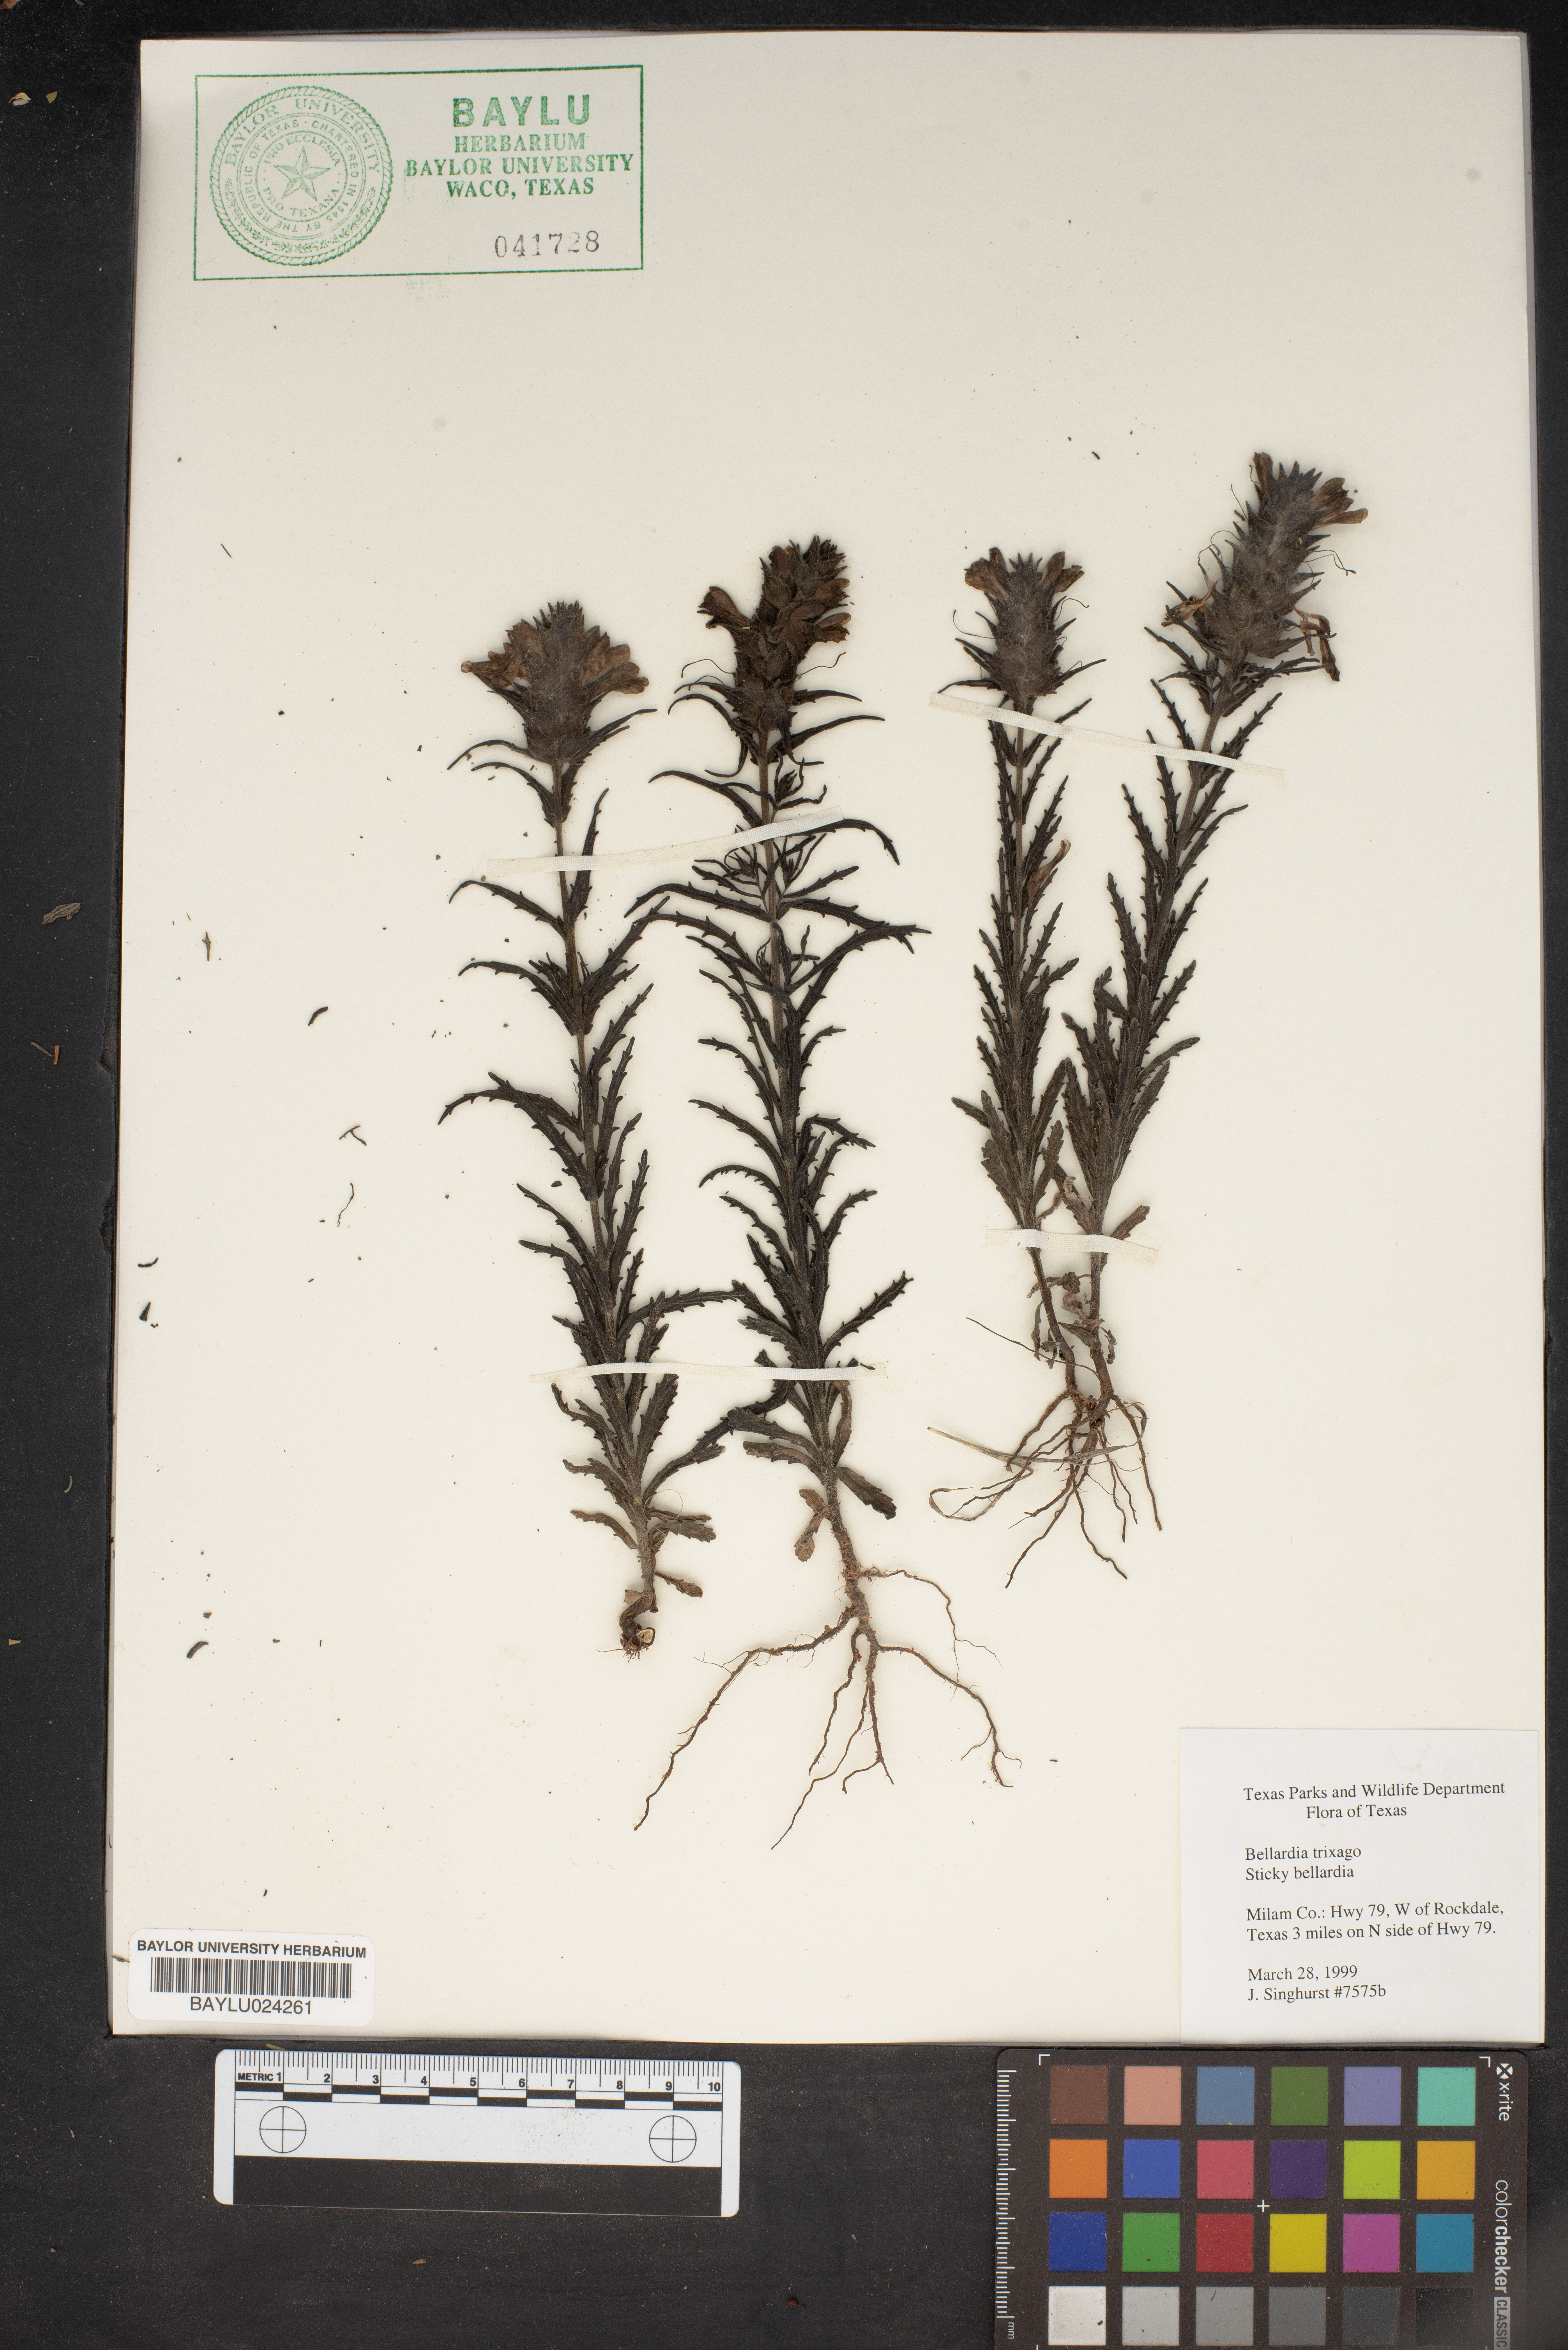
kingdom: Plantae
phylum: Tracheophyta
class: Magnoliopsida
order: Lamiales
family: Orobanchaceae
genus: Bellardia
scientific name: Bellardia trixago
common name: Mediterranean lineseed
